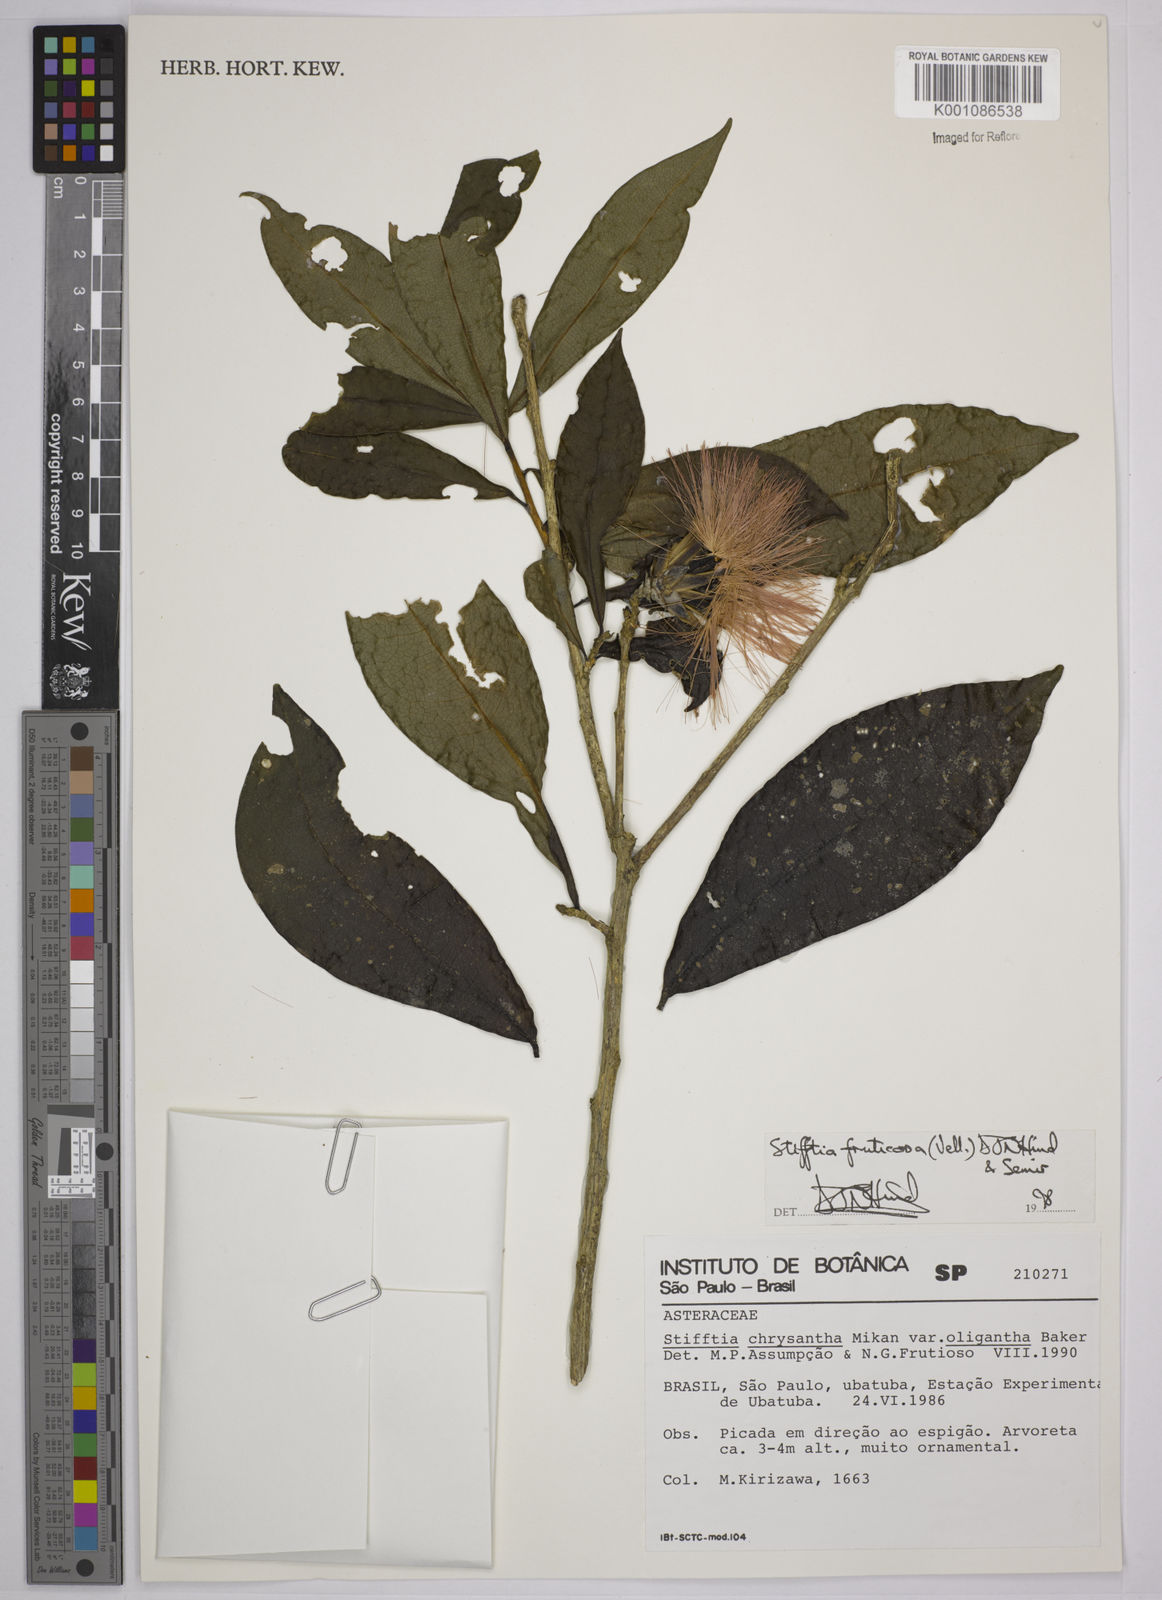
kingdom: Plantae
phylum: Tracheophyta
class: Magnoliopsida
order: Asterales
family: Asteraceae
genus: Stifftia
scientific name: Stifftia fruticosa
